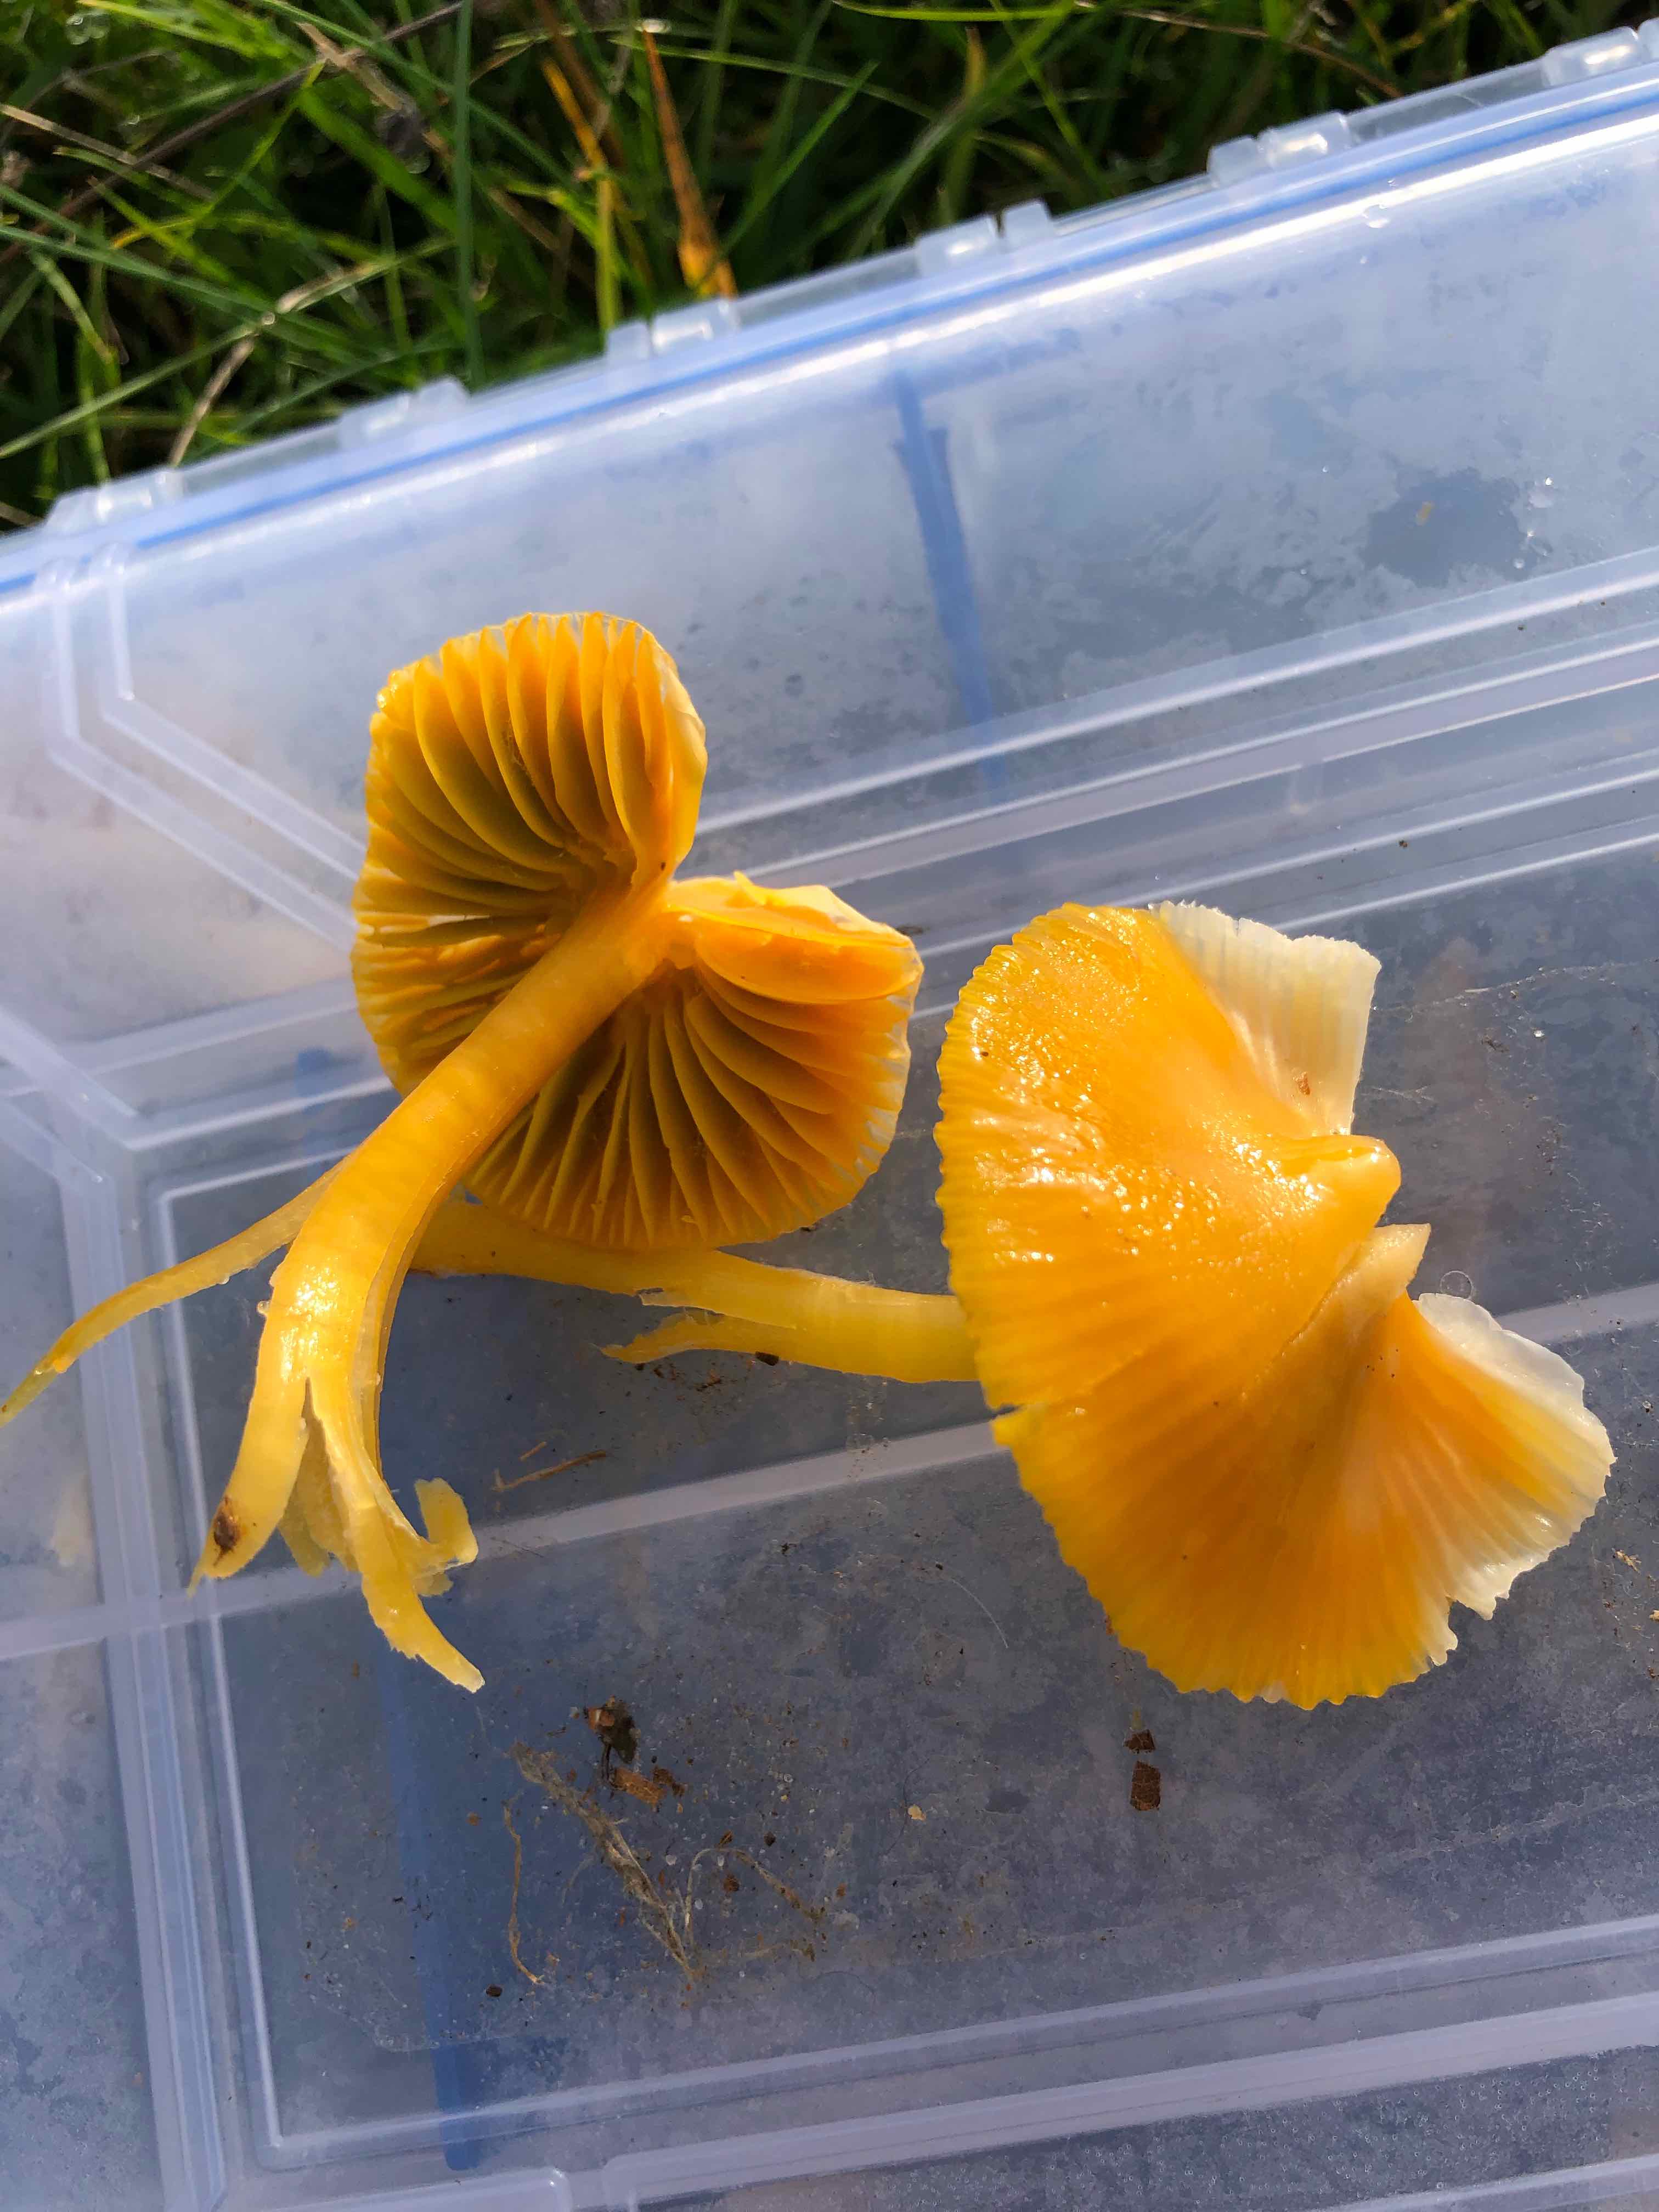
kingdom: Fungi
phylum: Basidiomycota
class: Agaricomycetes
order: Agaricales
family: Hygrophoraceae
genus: Gliophorus
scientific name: Gliophorus psittacinus
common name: papegøje-vokshat
